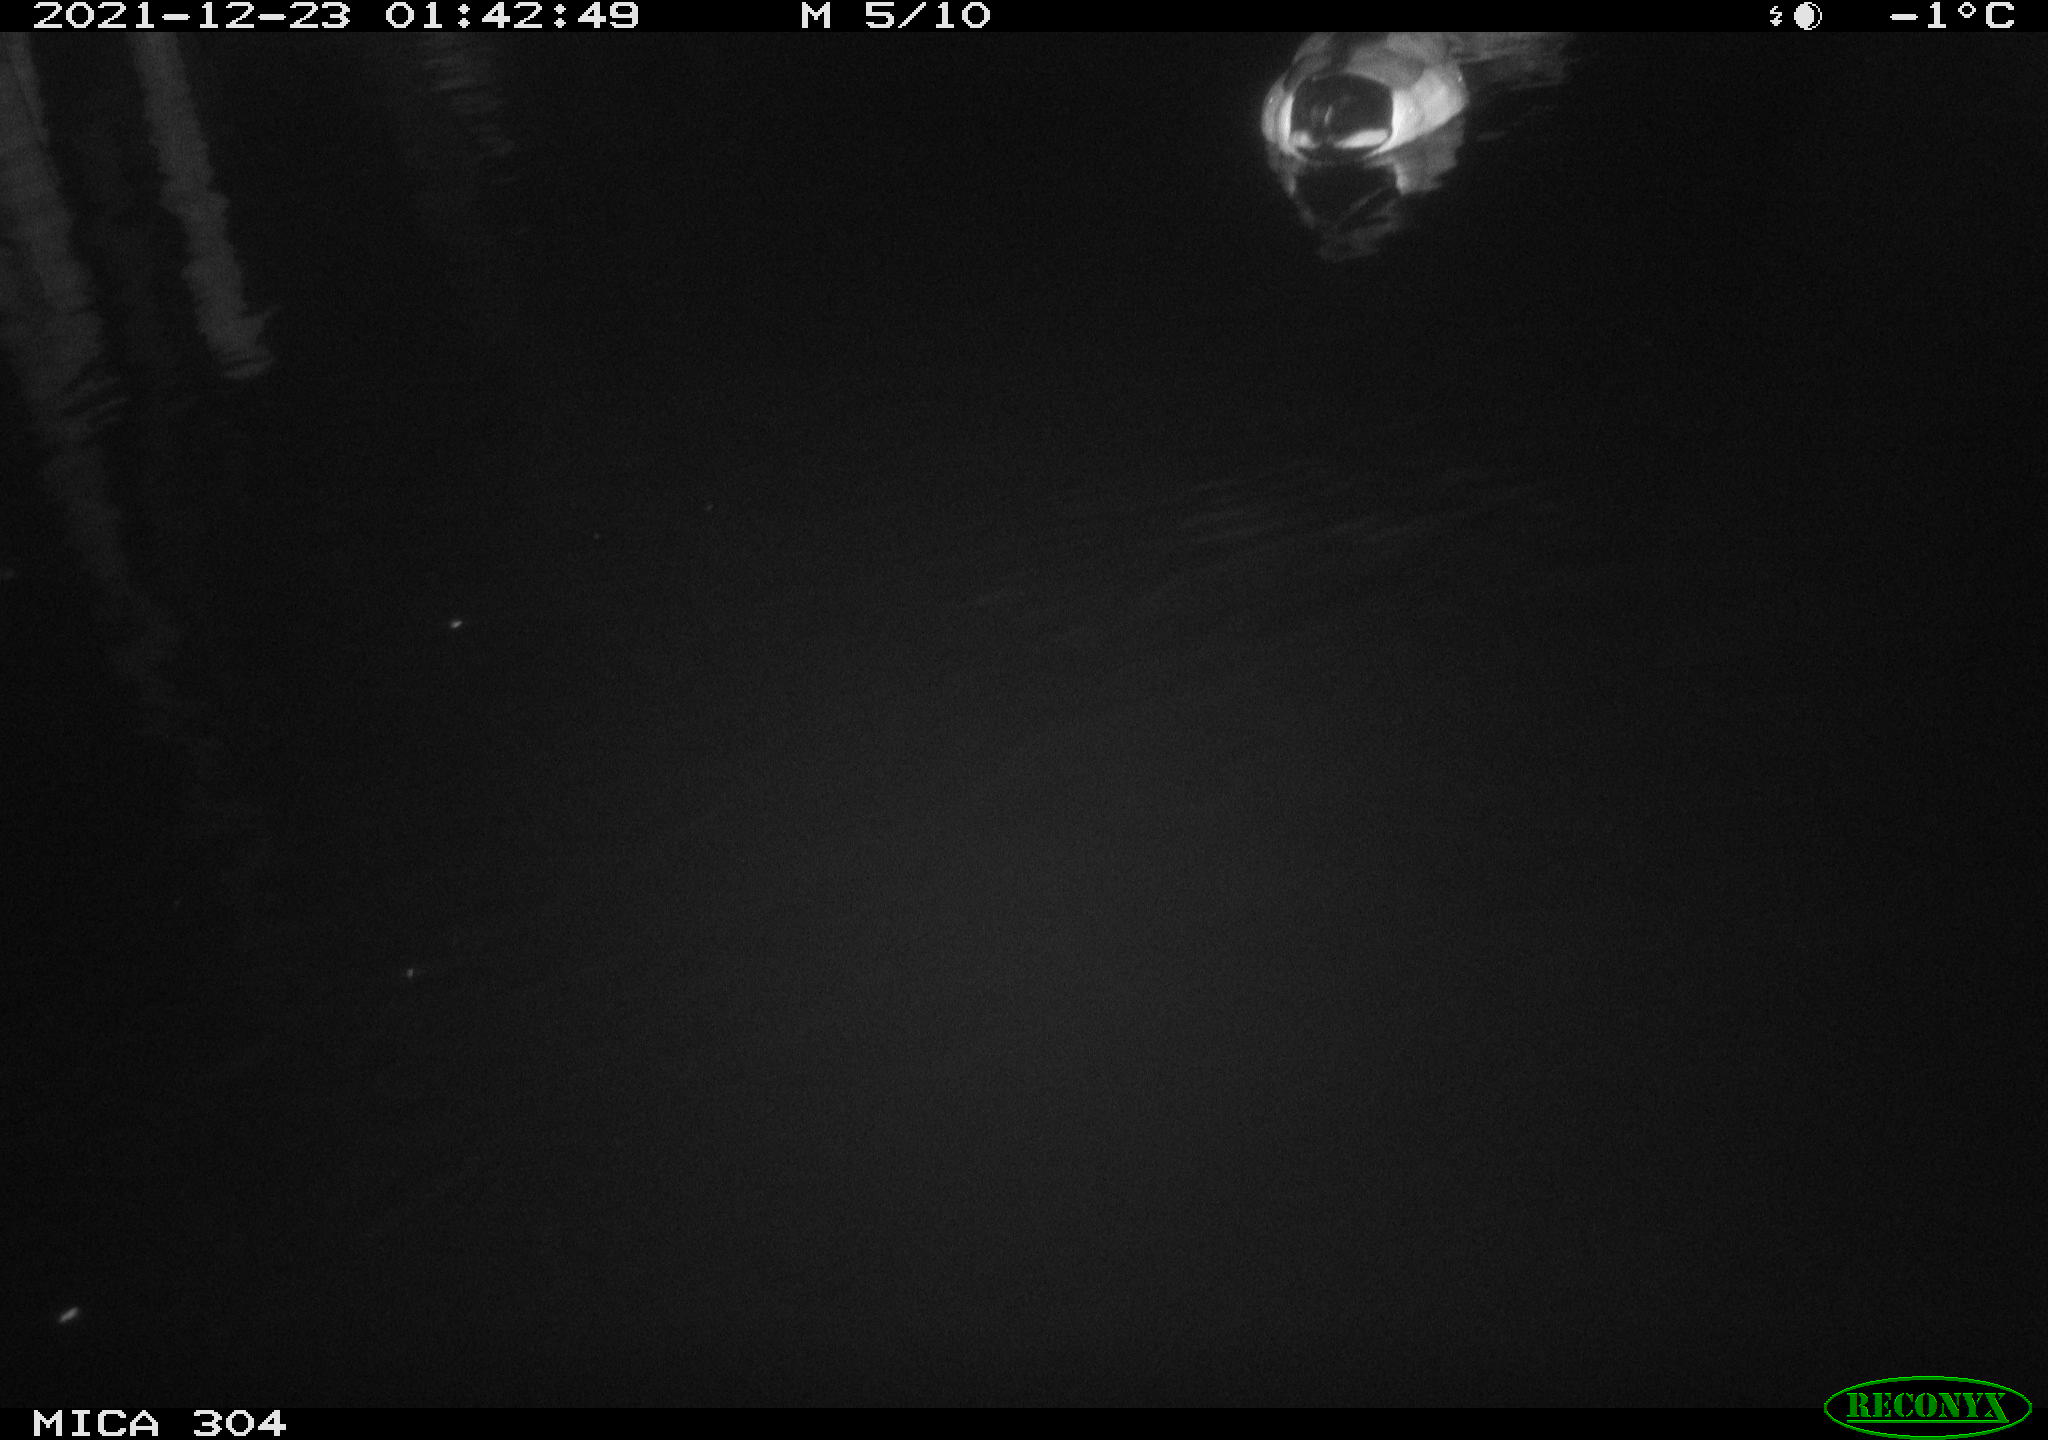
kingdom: Animalia
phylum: Chordata
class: Aves
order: Anseriformes
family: Anatidae
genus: Anas
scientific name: Anas
